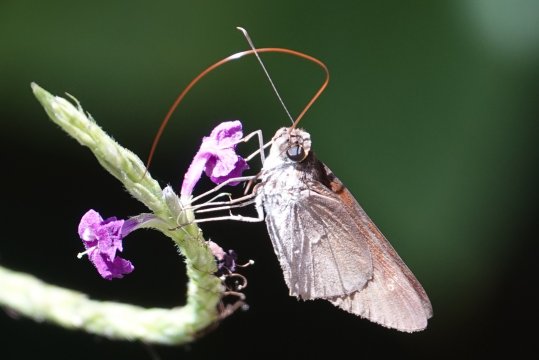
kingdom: Animalia
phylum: Arthropoda
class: Insecta
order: Lepidoptera
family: Hesperiidae
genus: Lerema
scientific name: Lerema ancillaris
